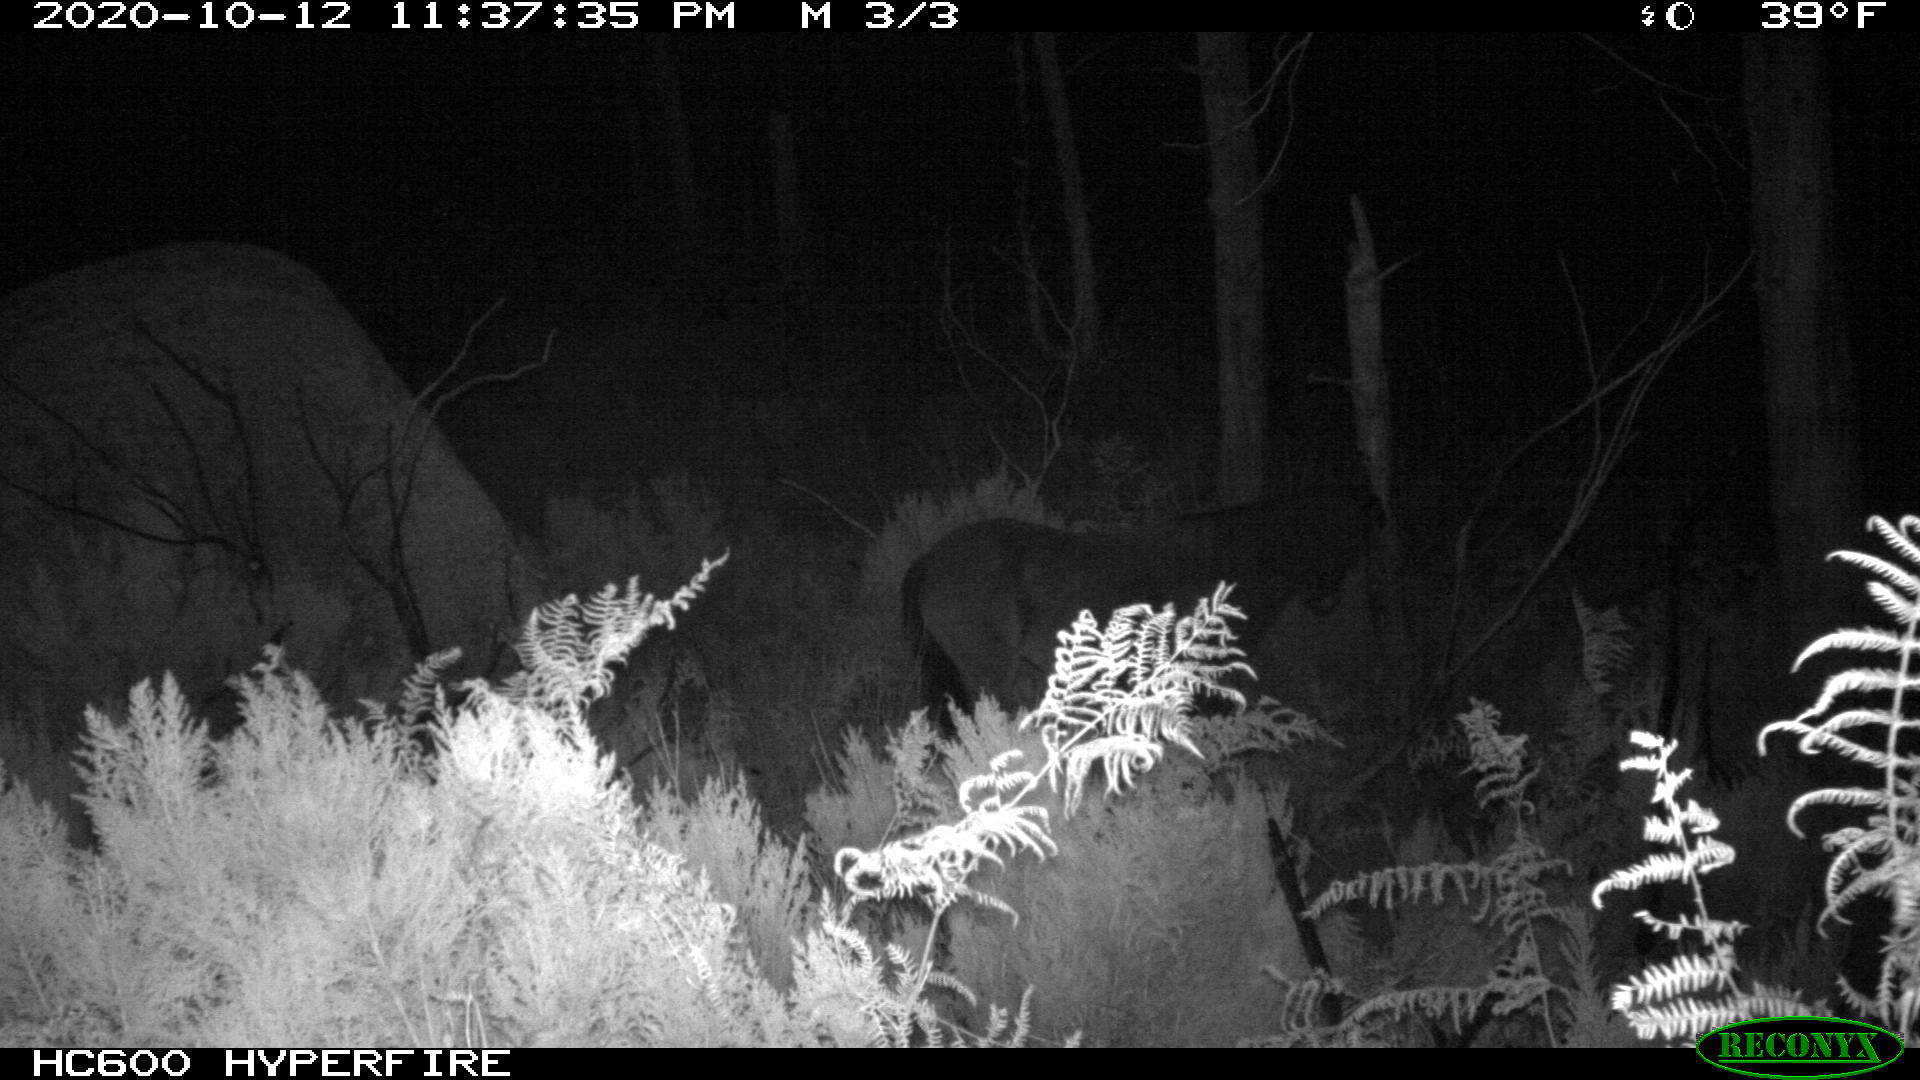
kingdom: Animalia
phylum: Chordata
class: Mammalia
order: Perissodactyla
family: Equidae
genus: Equus
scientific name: Equus caballus
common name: Horse
